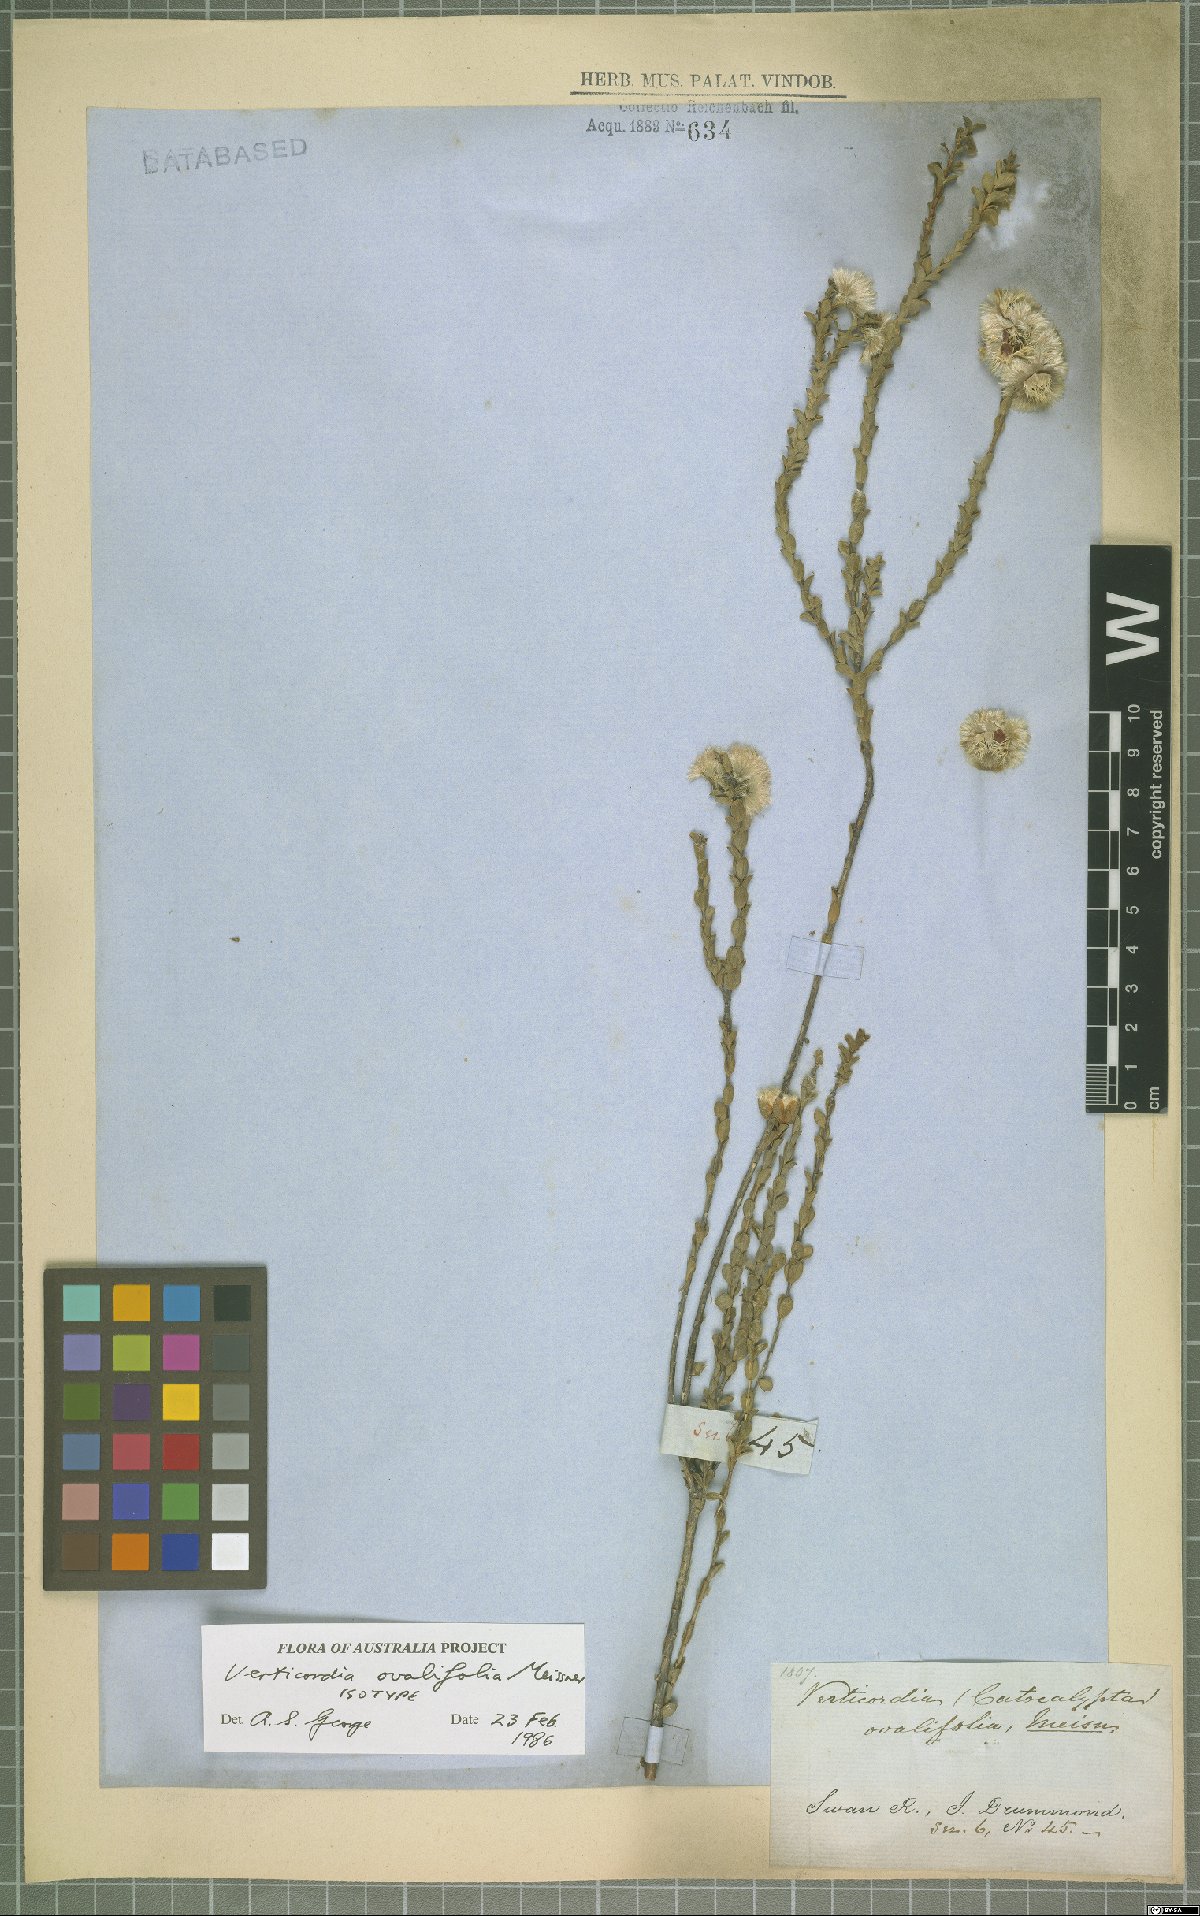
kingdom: Plantae
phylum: Tracheophyta
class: Magnoliopsida
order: Myrtales
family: Myrtaceae
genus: Verticordia
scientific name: Verticordia ovalifolia
